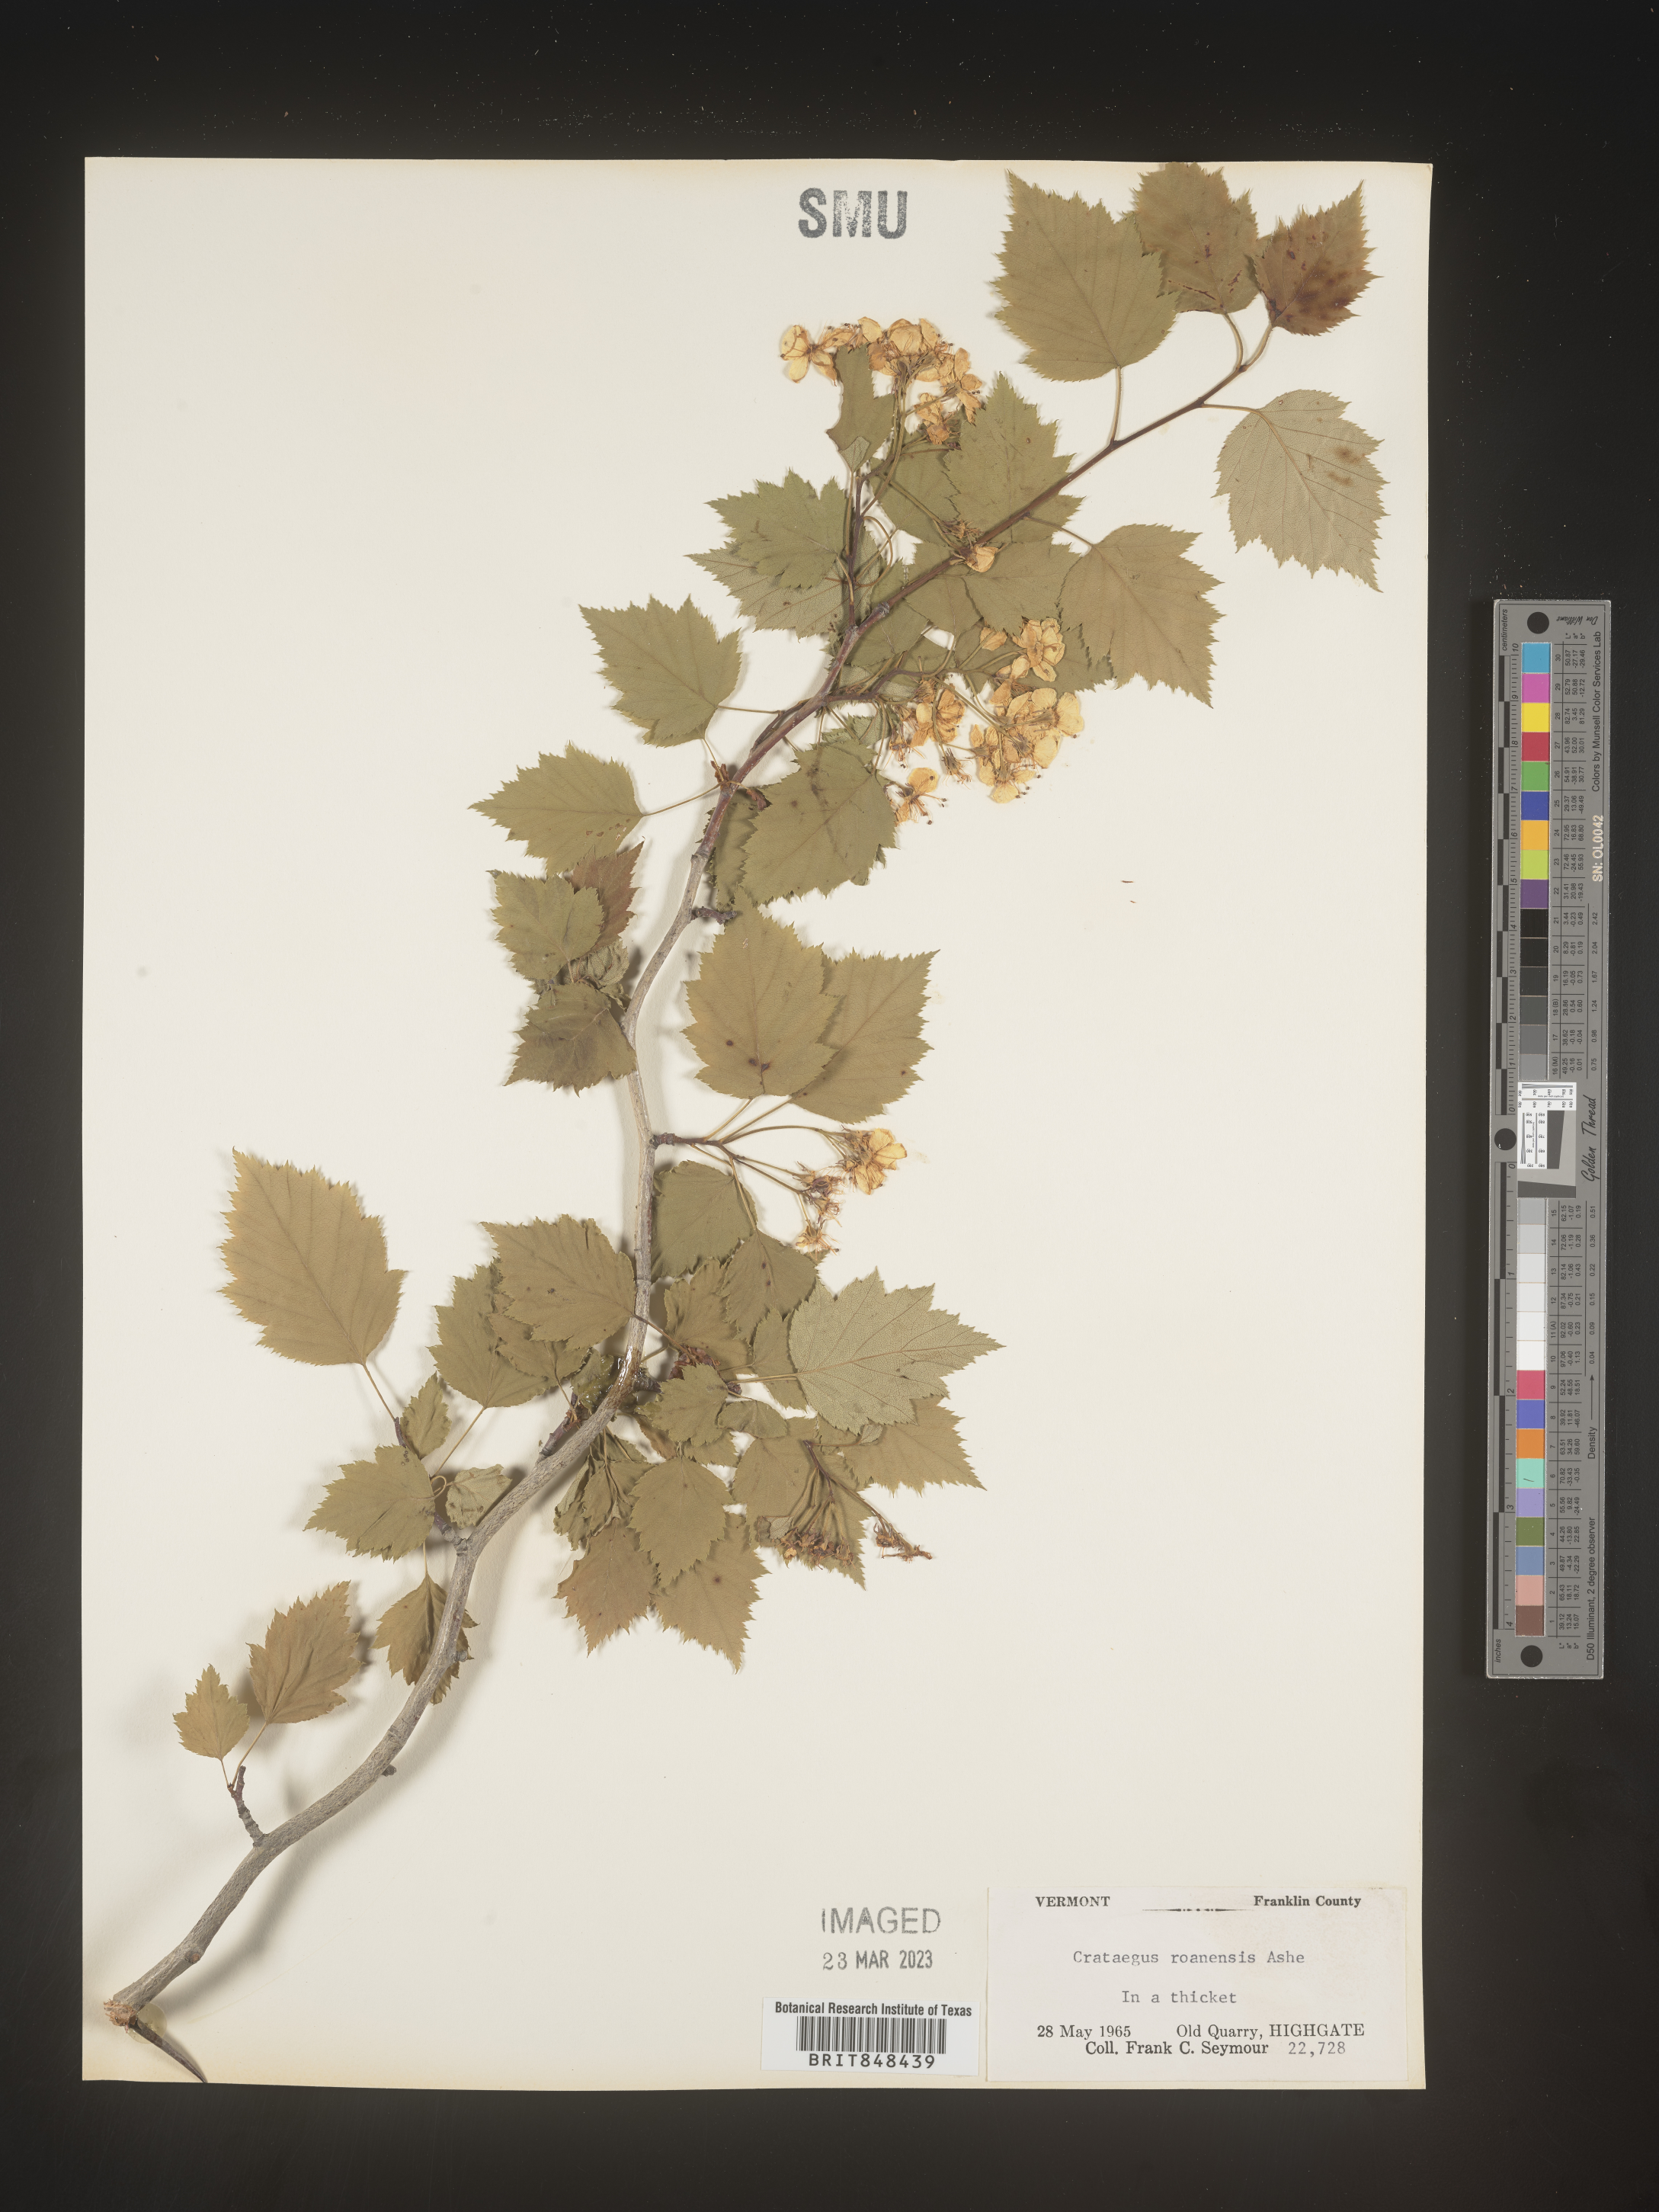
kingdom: Plantae
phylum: Tracheophyta
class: Magnoliopsida
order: Rosales
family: Rosaceae
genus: Crataegus
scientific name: Crataegus macrosperma
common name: Variable hawthorn
